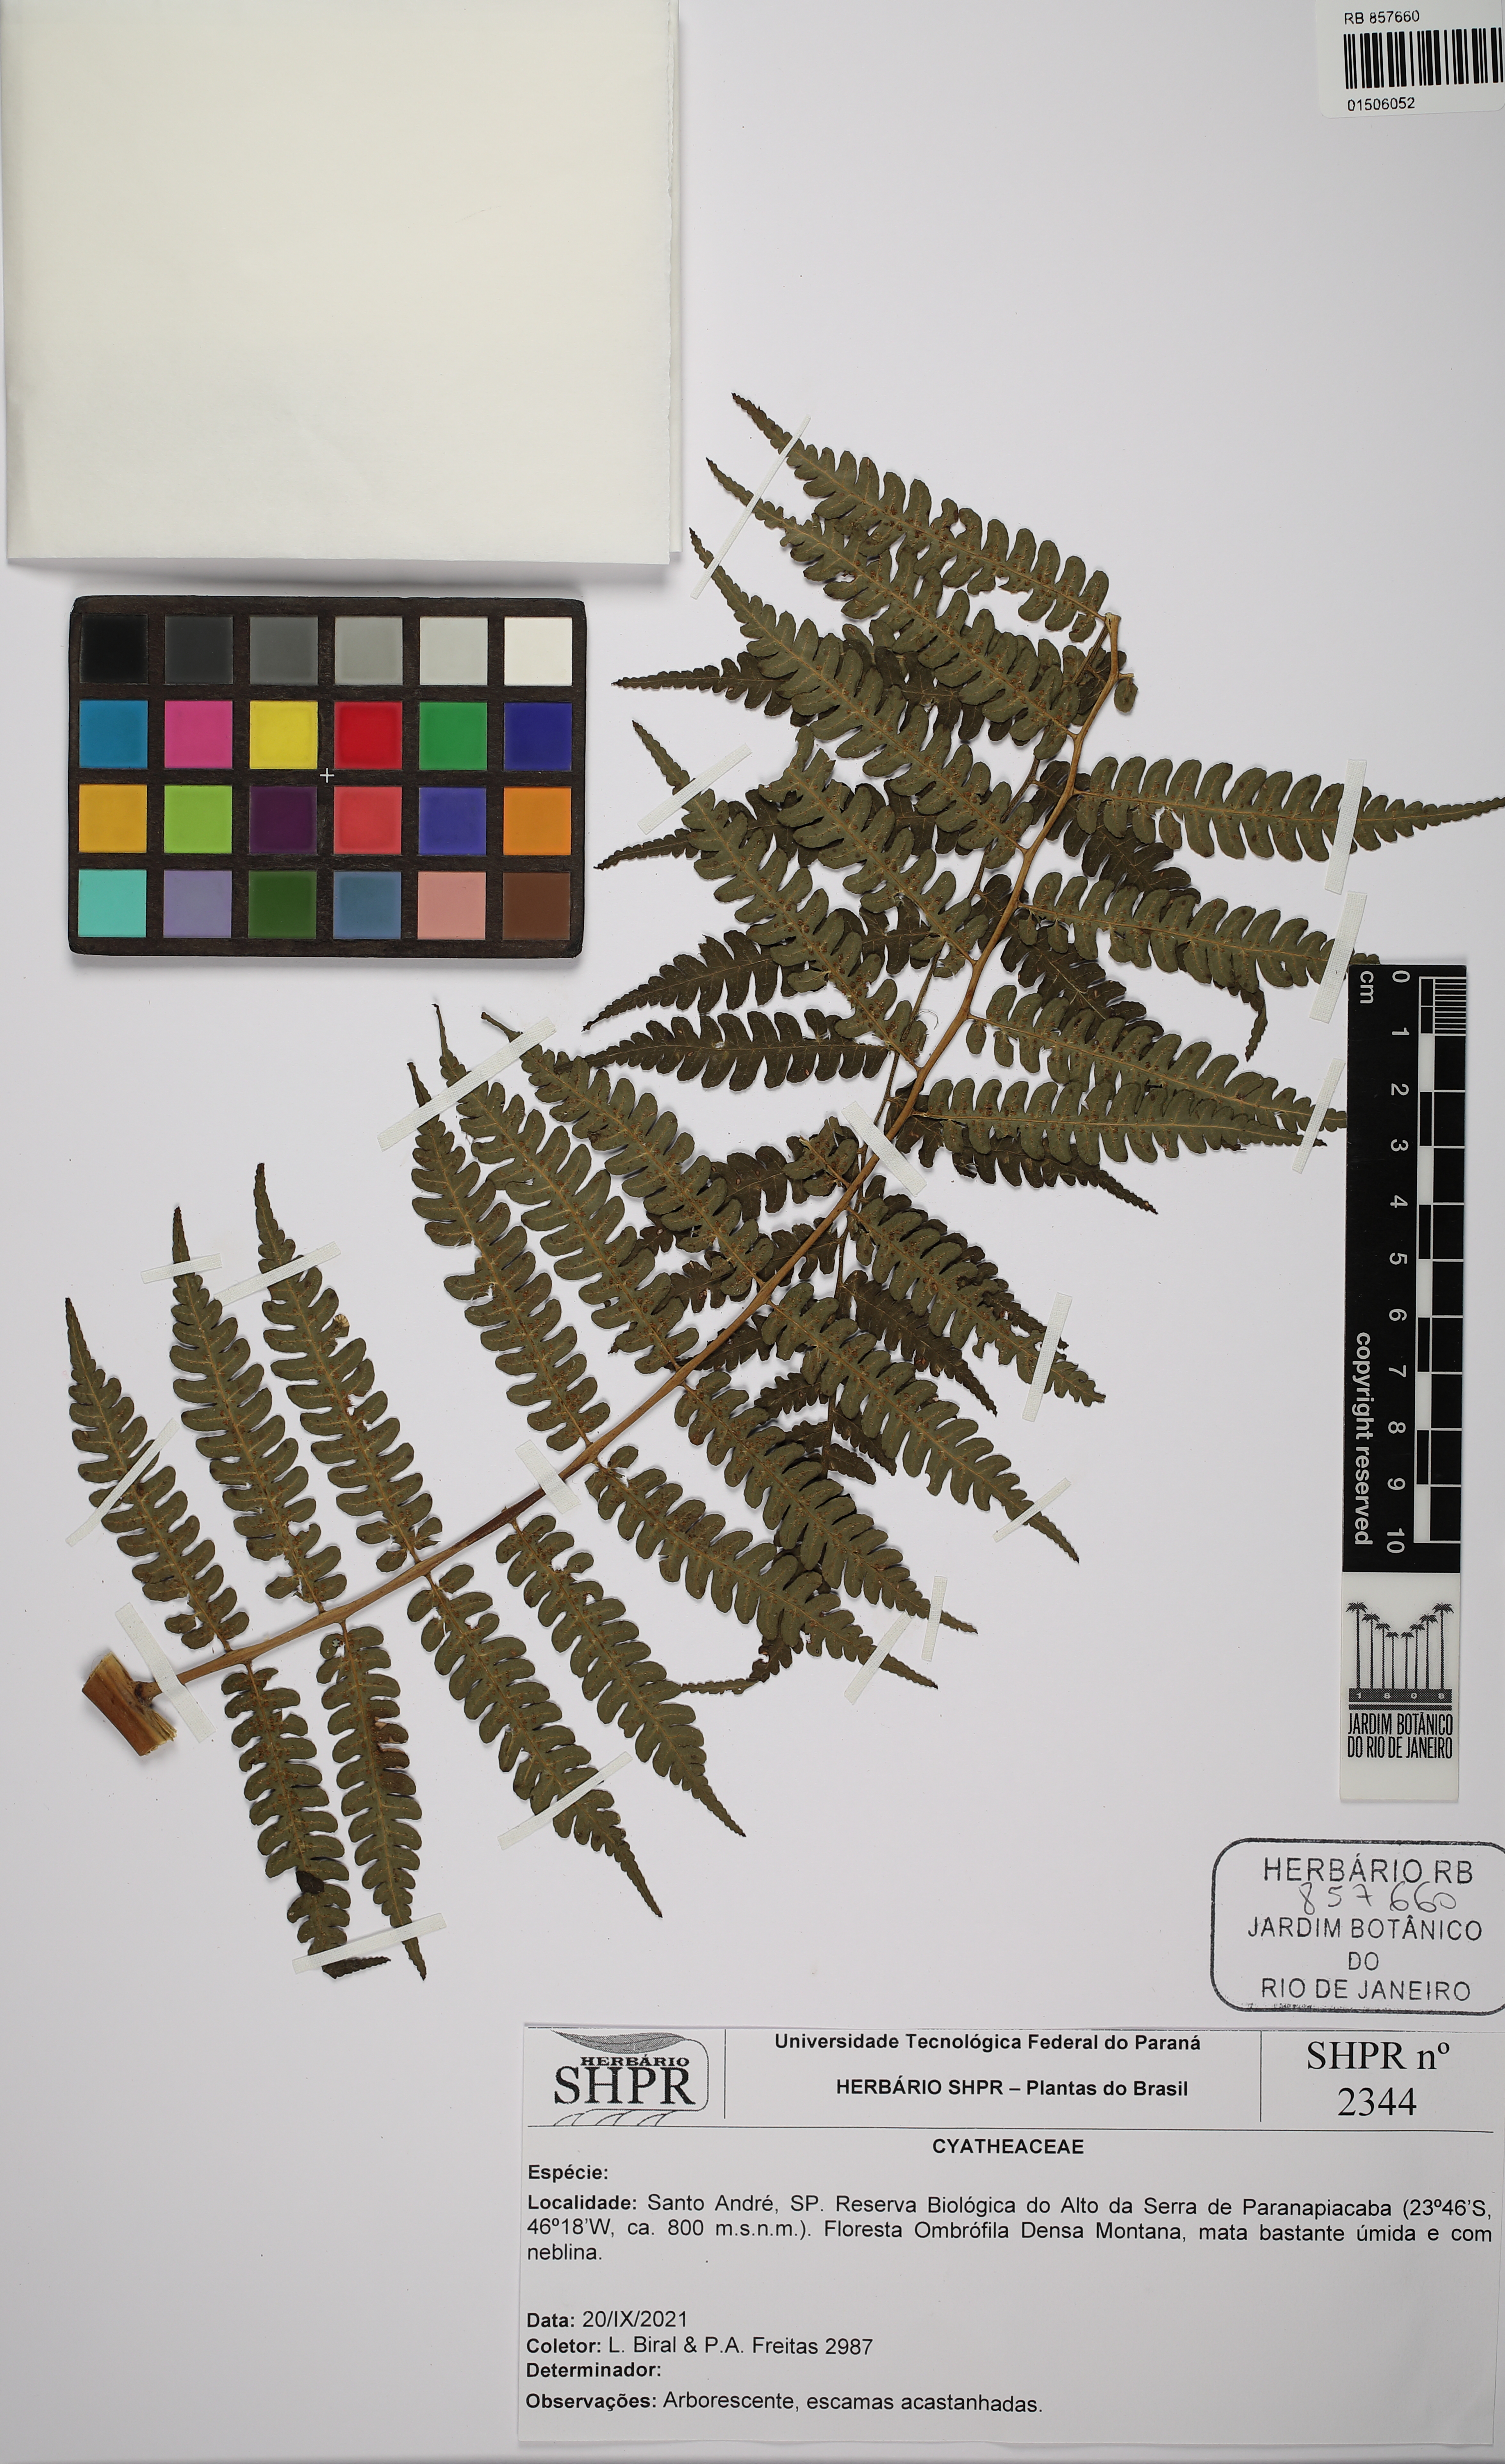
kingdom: Plantae
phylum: Tracheophyta
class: Polypodiopsida
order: Cyatheales
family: Cyatheaceae
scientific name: Cyatheaceae
